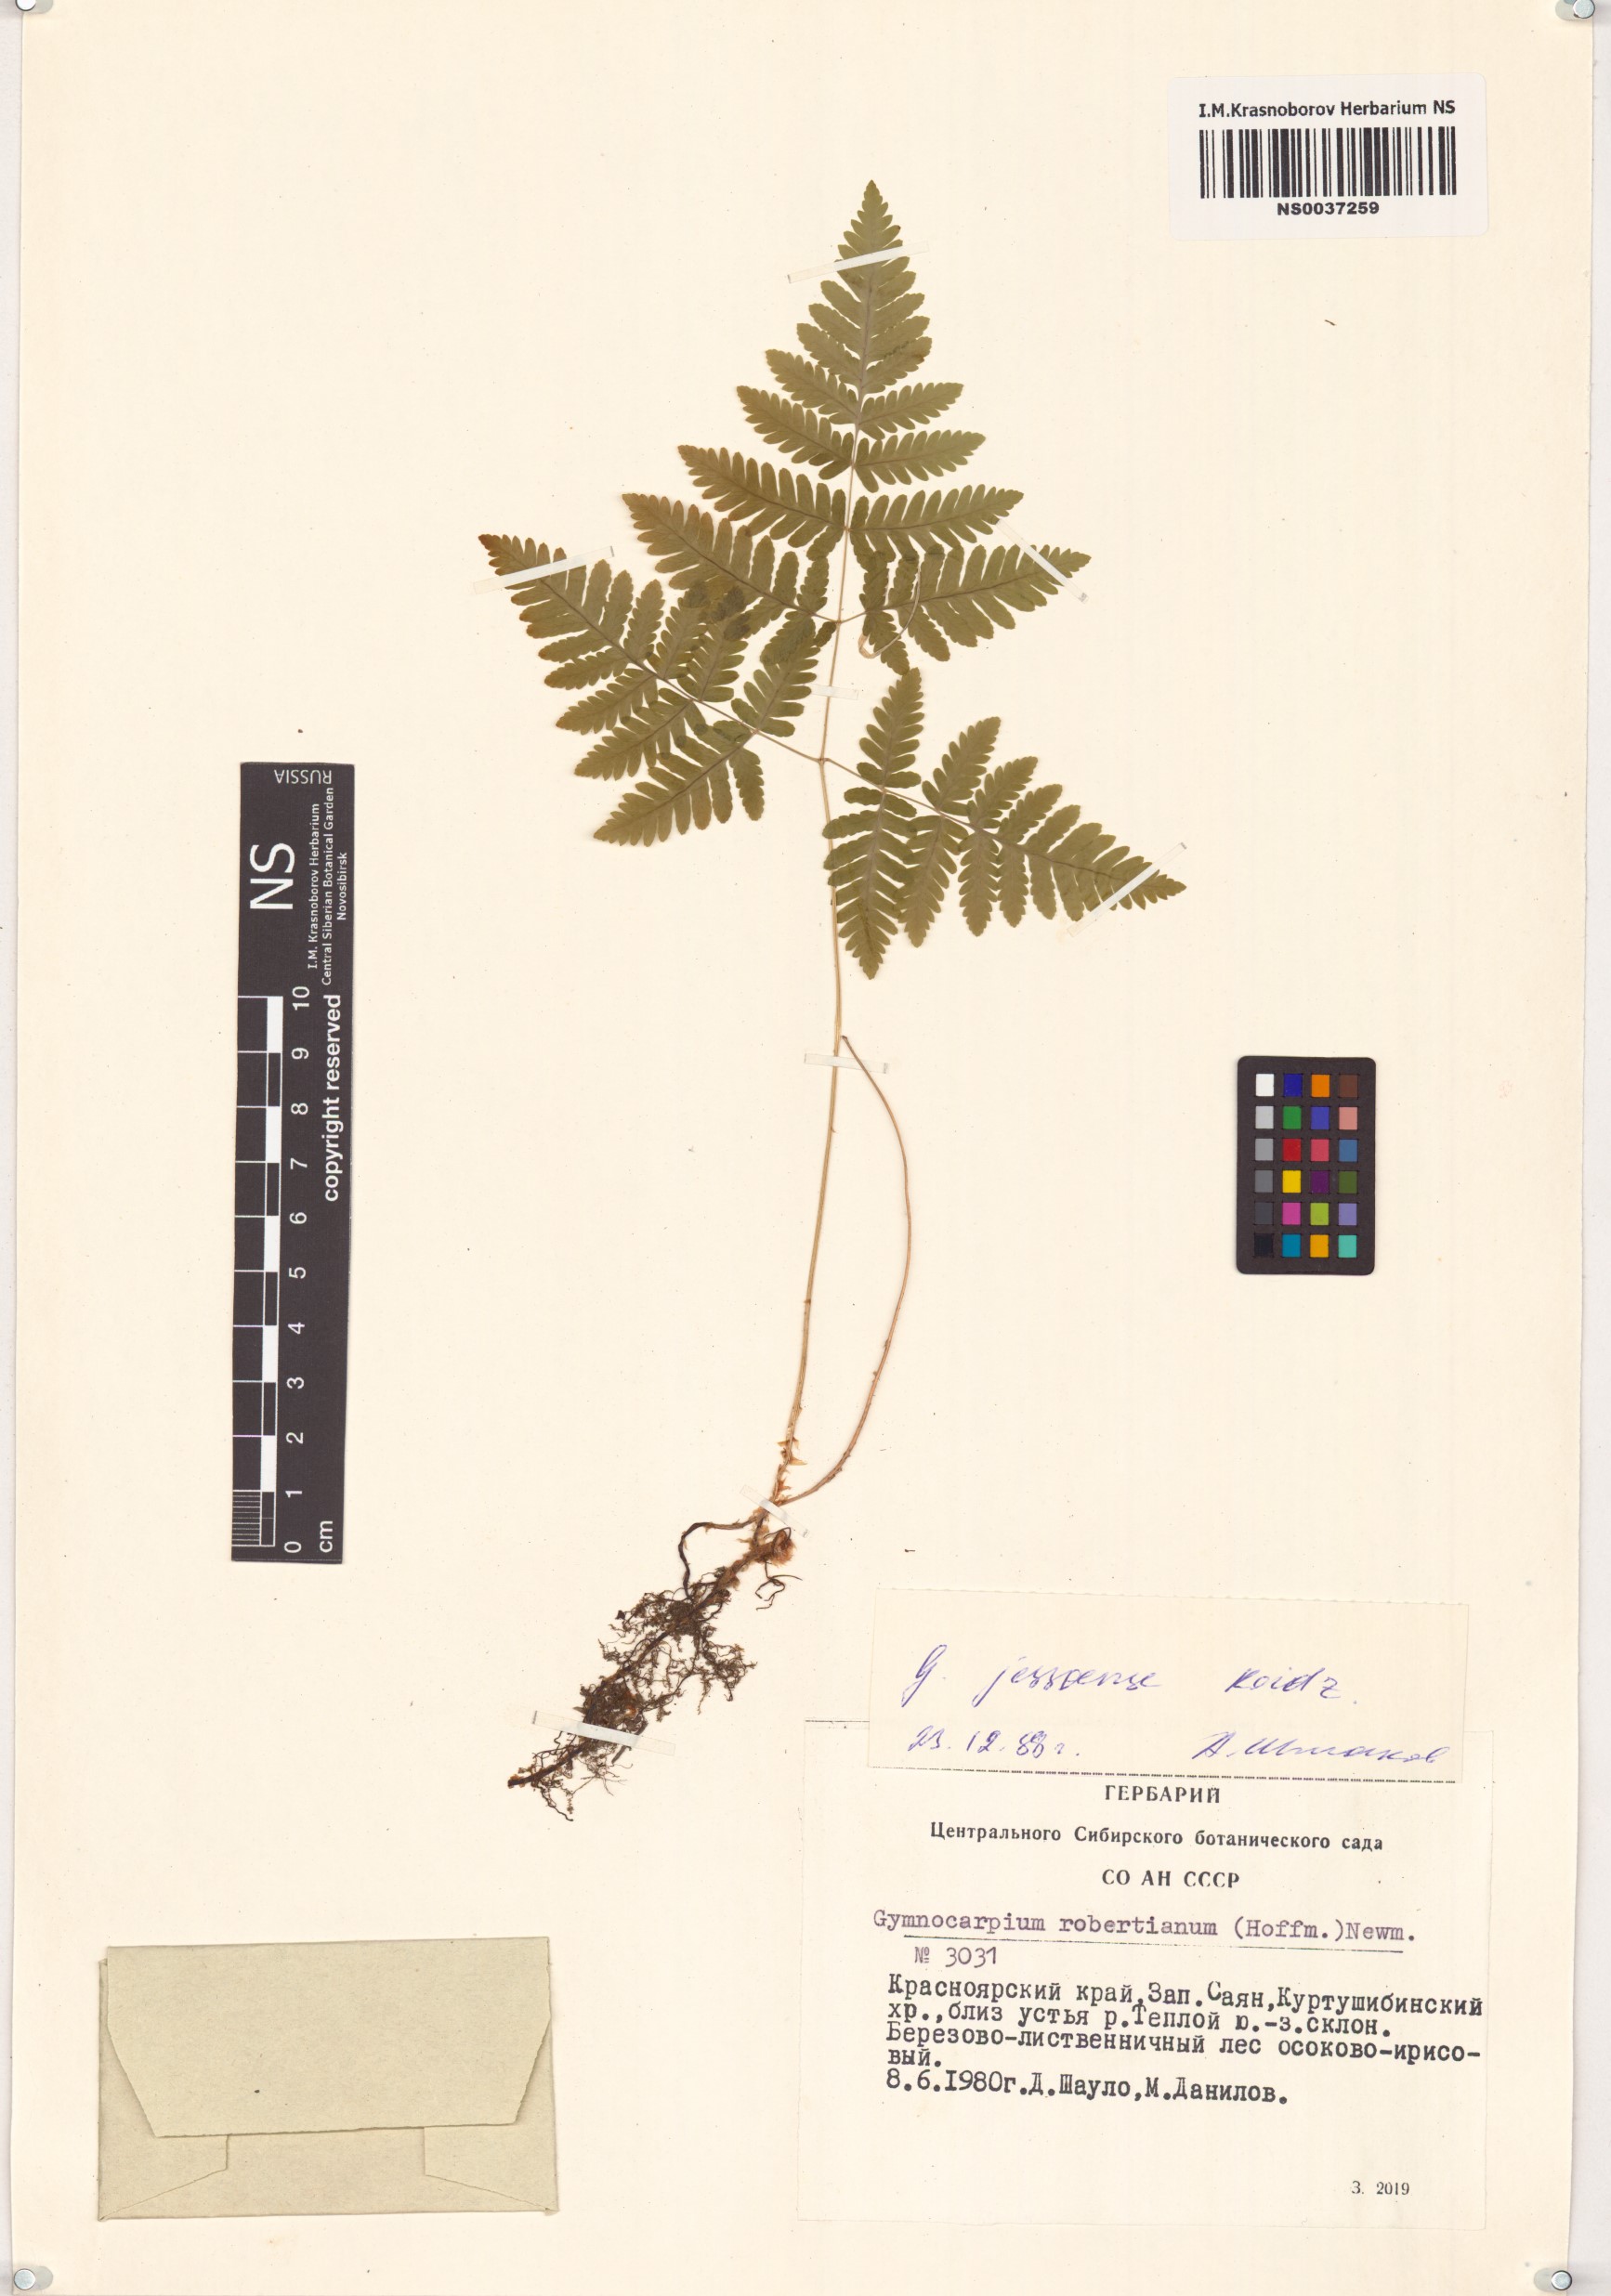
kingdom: Plantae
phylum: Tracheophyta
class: Polypodiopsida
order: Polypodiales
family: Cystopteridaceae
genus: Gymnocarpium
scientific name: Gymnocarpium jessoense
